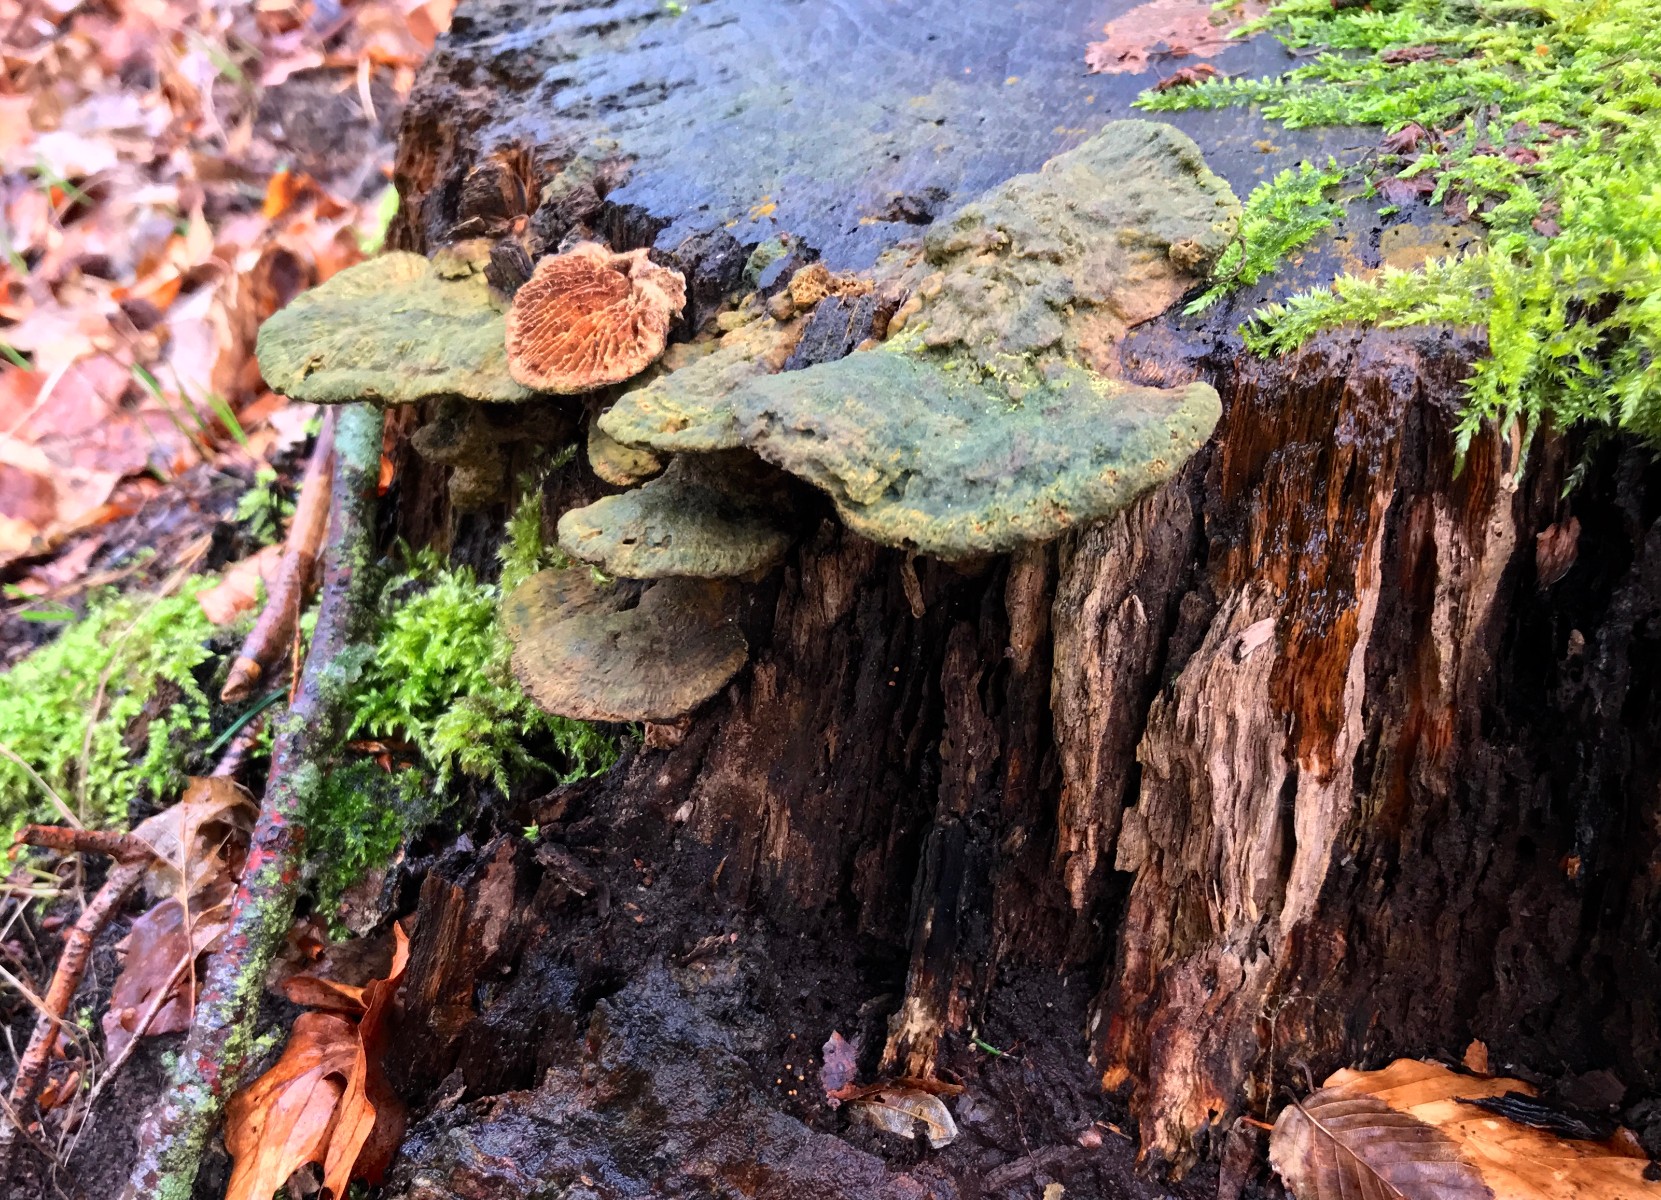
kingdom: Fungi
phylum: Basidiomycota
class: Agaricomycetes
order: Polyporales
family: Fomitopsidaceae
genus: Daedalea
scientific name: Daedalea quercina
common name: ege-labyrintsvamp
